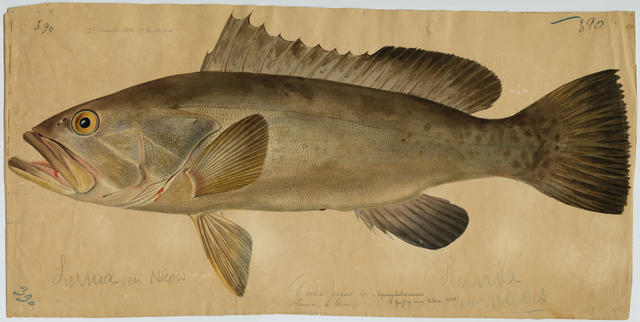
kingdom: Animalia
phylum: Chordata
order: Perciformes
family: Serranidae
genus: Epinephelus
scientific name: Epinephelus aeneus
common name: White grouper
